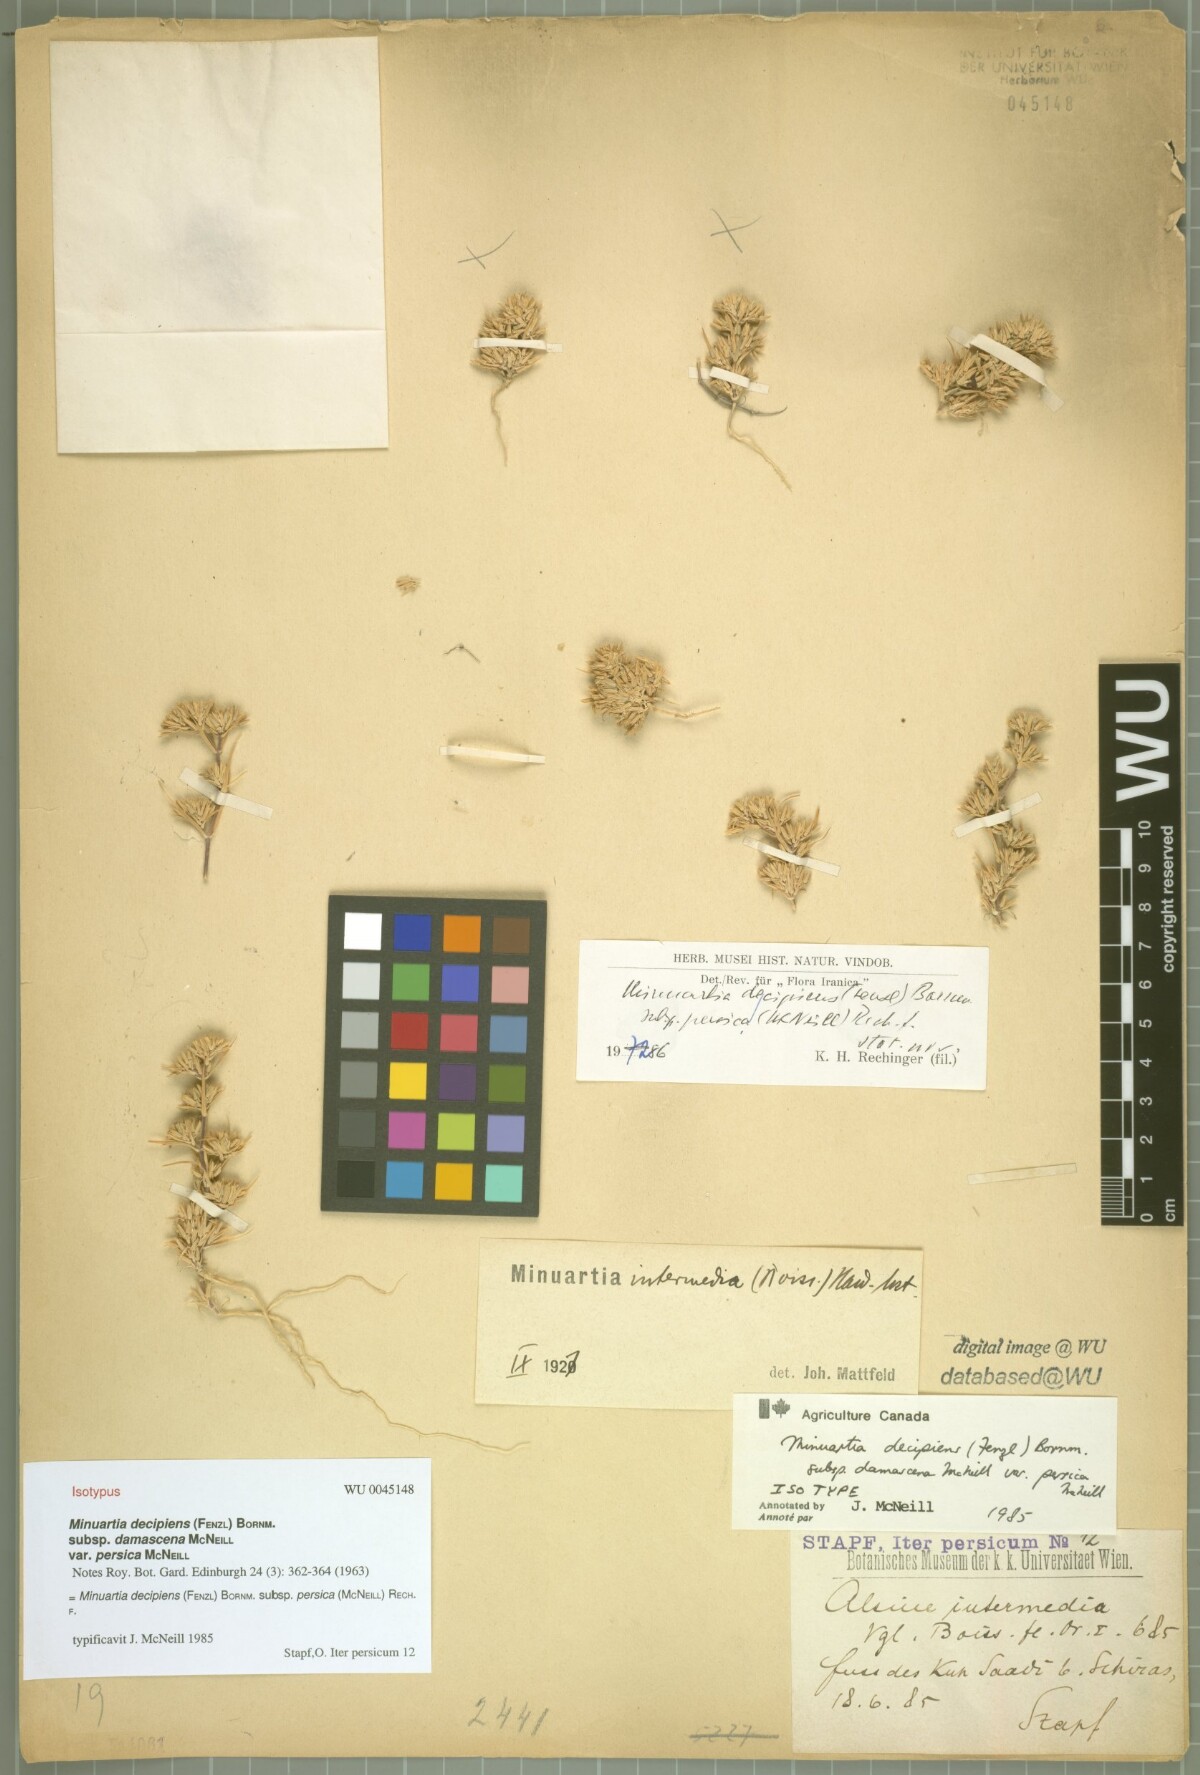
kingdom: Plantae
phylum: Tracheophyta
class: Magnoliopsida
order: Caryophyllales
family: Caryophyllaceae
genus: Minuartia
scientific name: Minuartia decipiens
